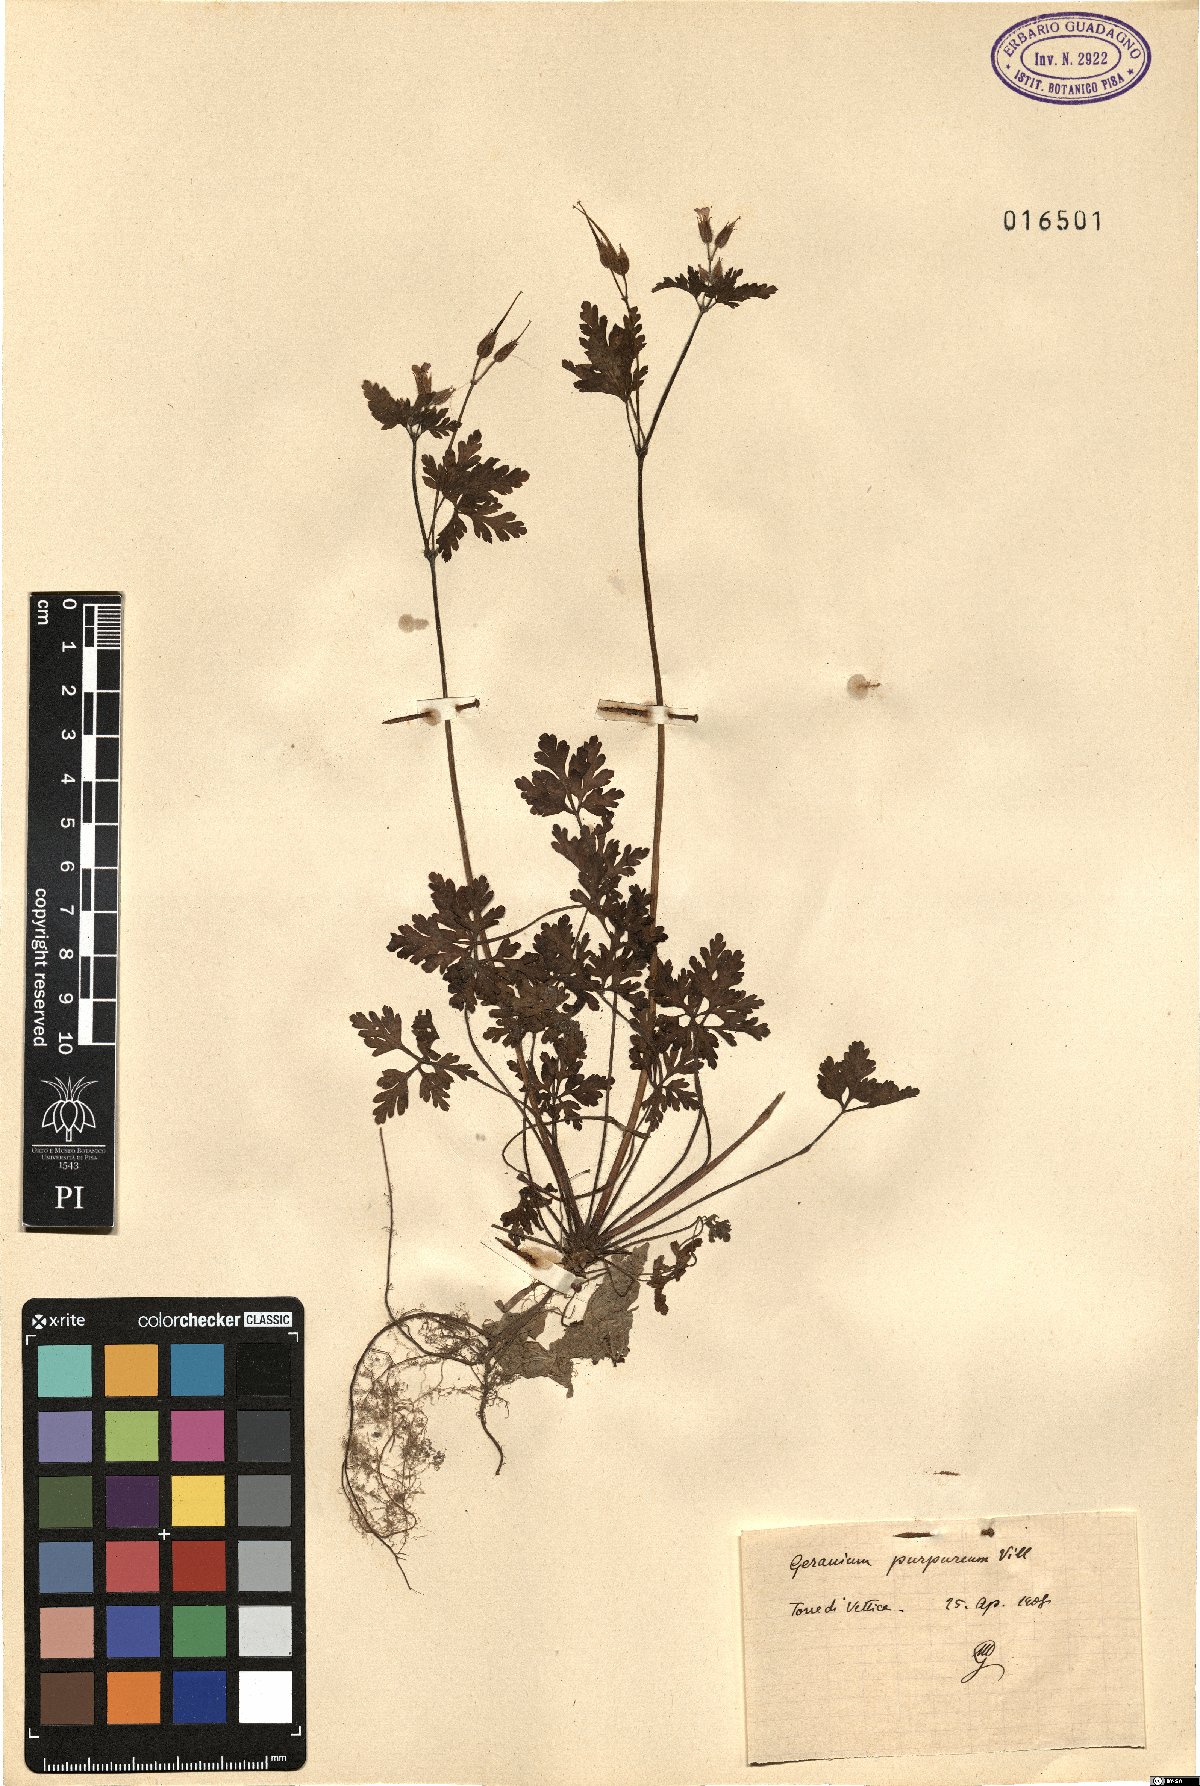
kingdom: Plantae
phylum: Tracheophyta
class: Magnoliopsida
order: Geraniales
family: Geraniaceae
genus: Geranium
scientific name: Geranium purpureum
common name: Little-robin
